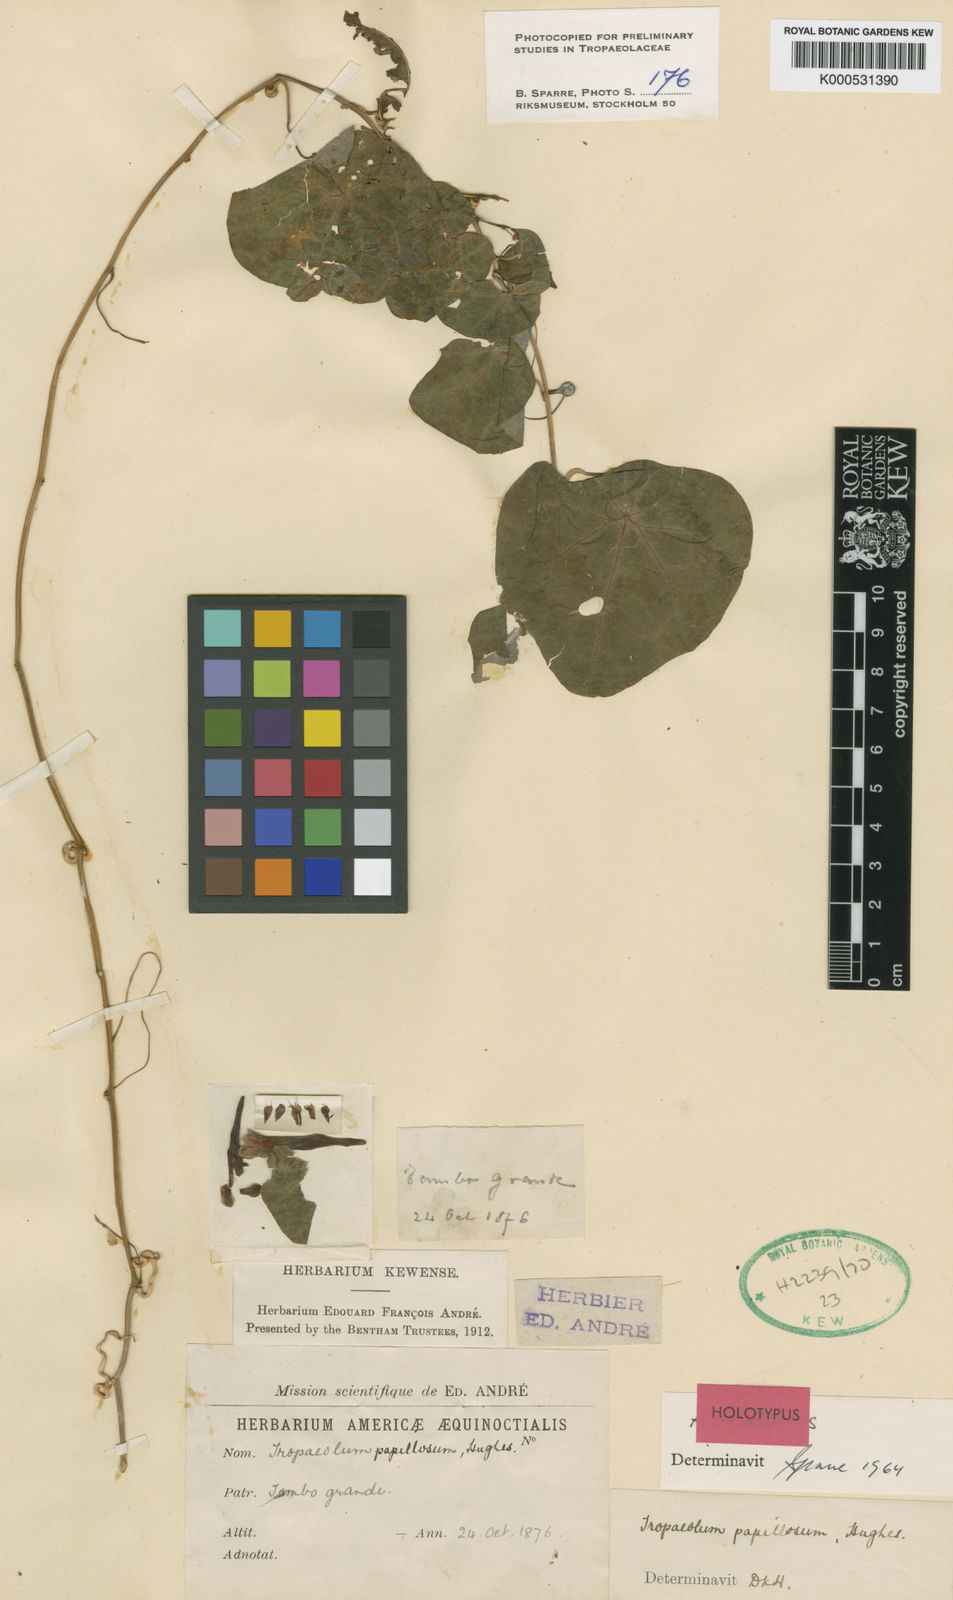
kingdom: Plantae
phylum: Tracheophyta
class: Magnoliopsida
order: Brassicales
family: Tropaeolaceae
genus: Tropaeolum
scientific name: Tropaeolum papillosum
